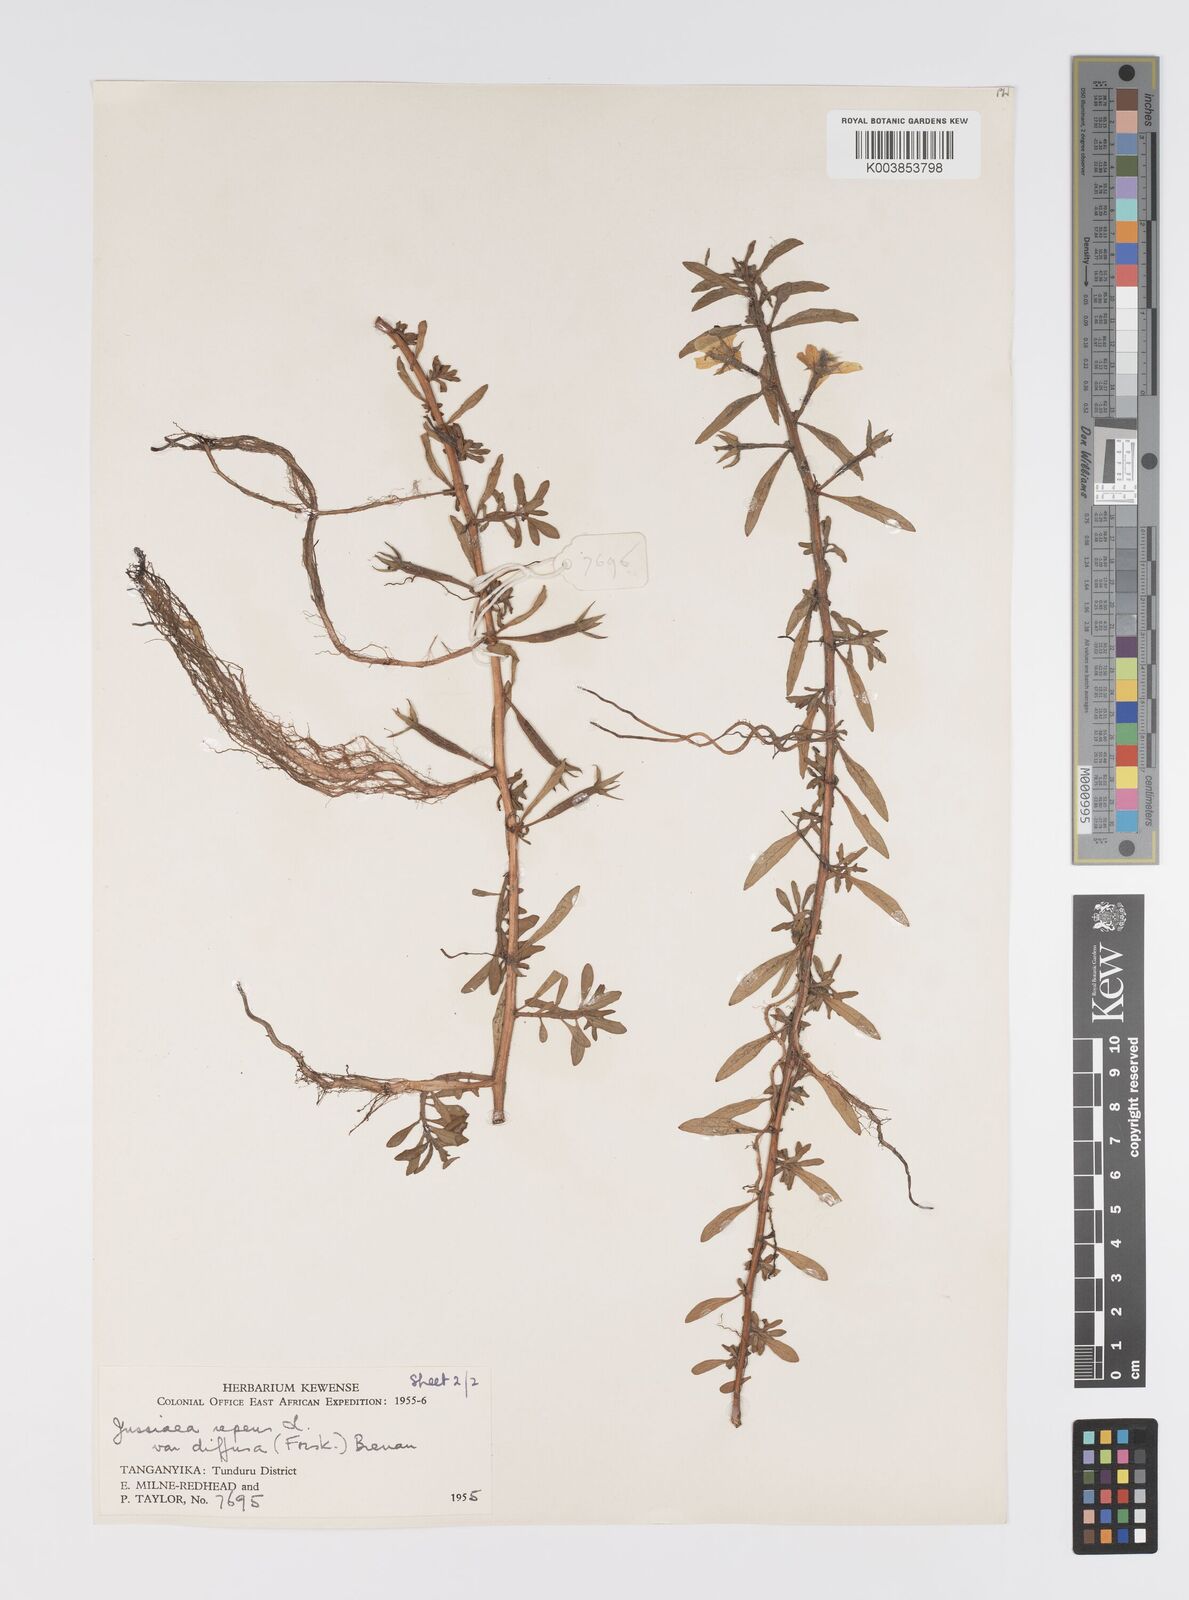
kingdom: Plantae
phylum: Tracheophyta
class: Magnoliopsida
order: Myrtales
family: Onagraceae
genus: Ludwigia
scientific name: Ludwigia adscendens
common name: Creeping water primrose
